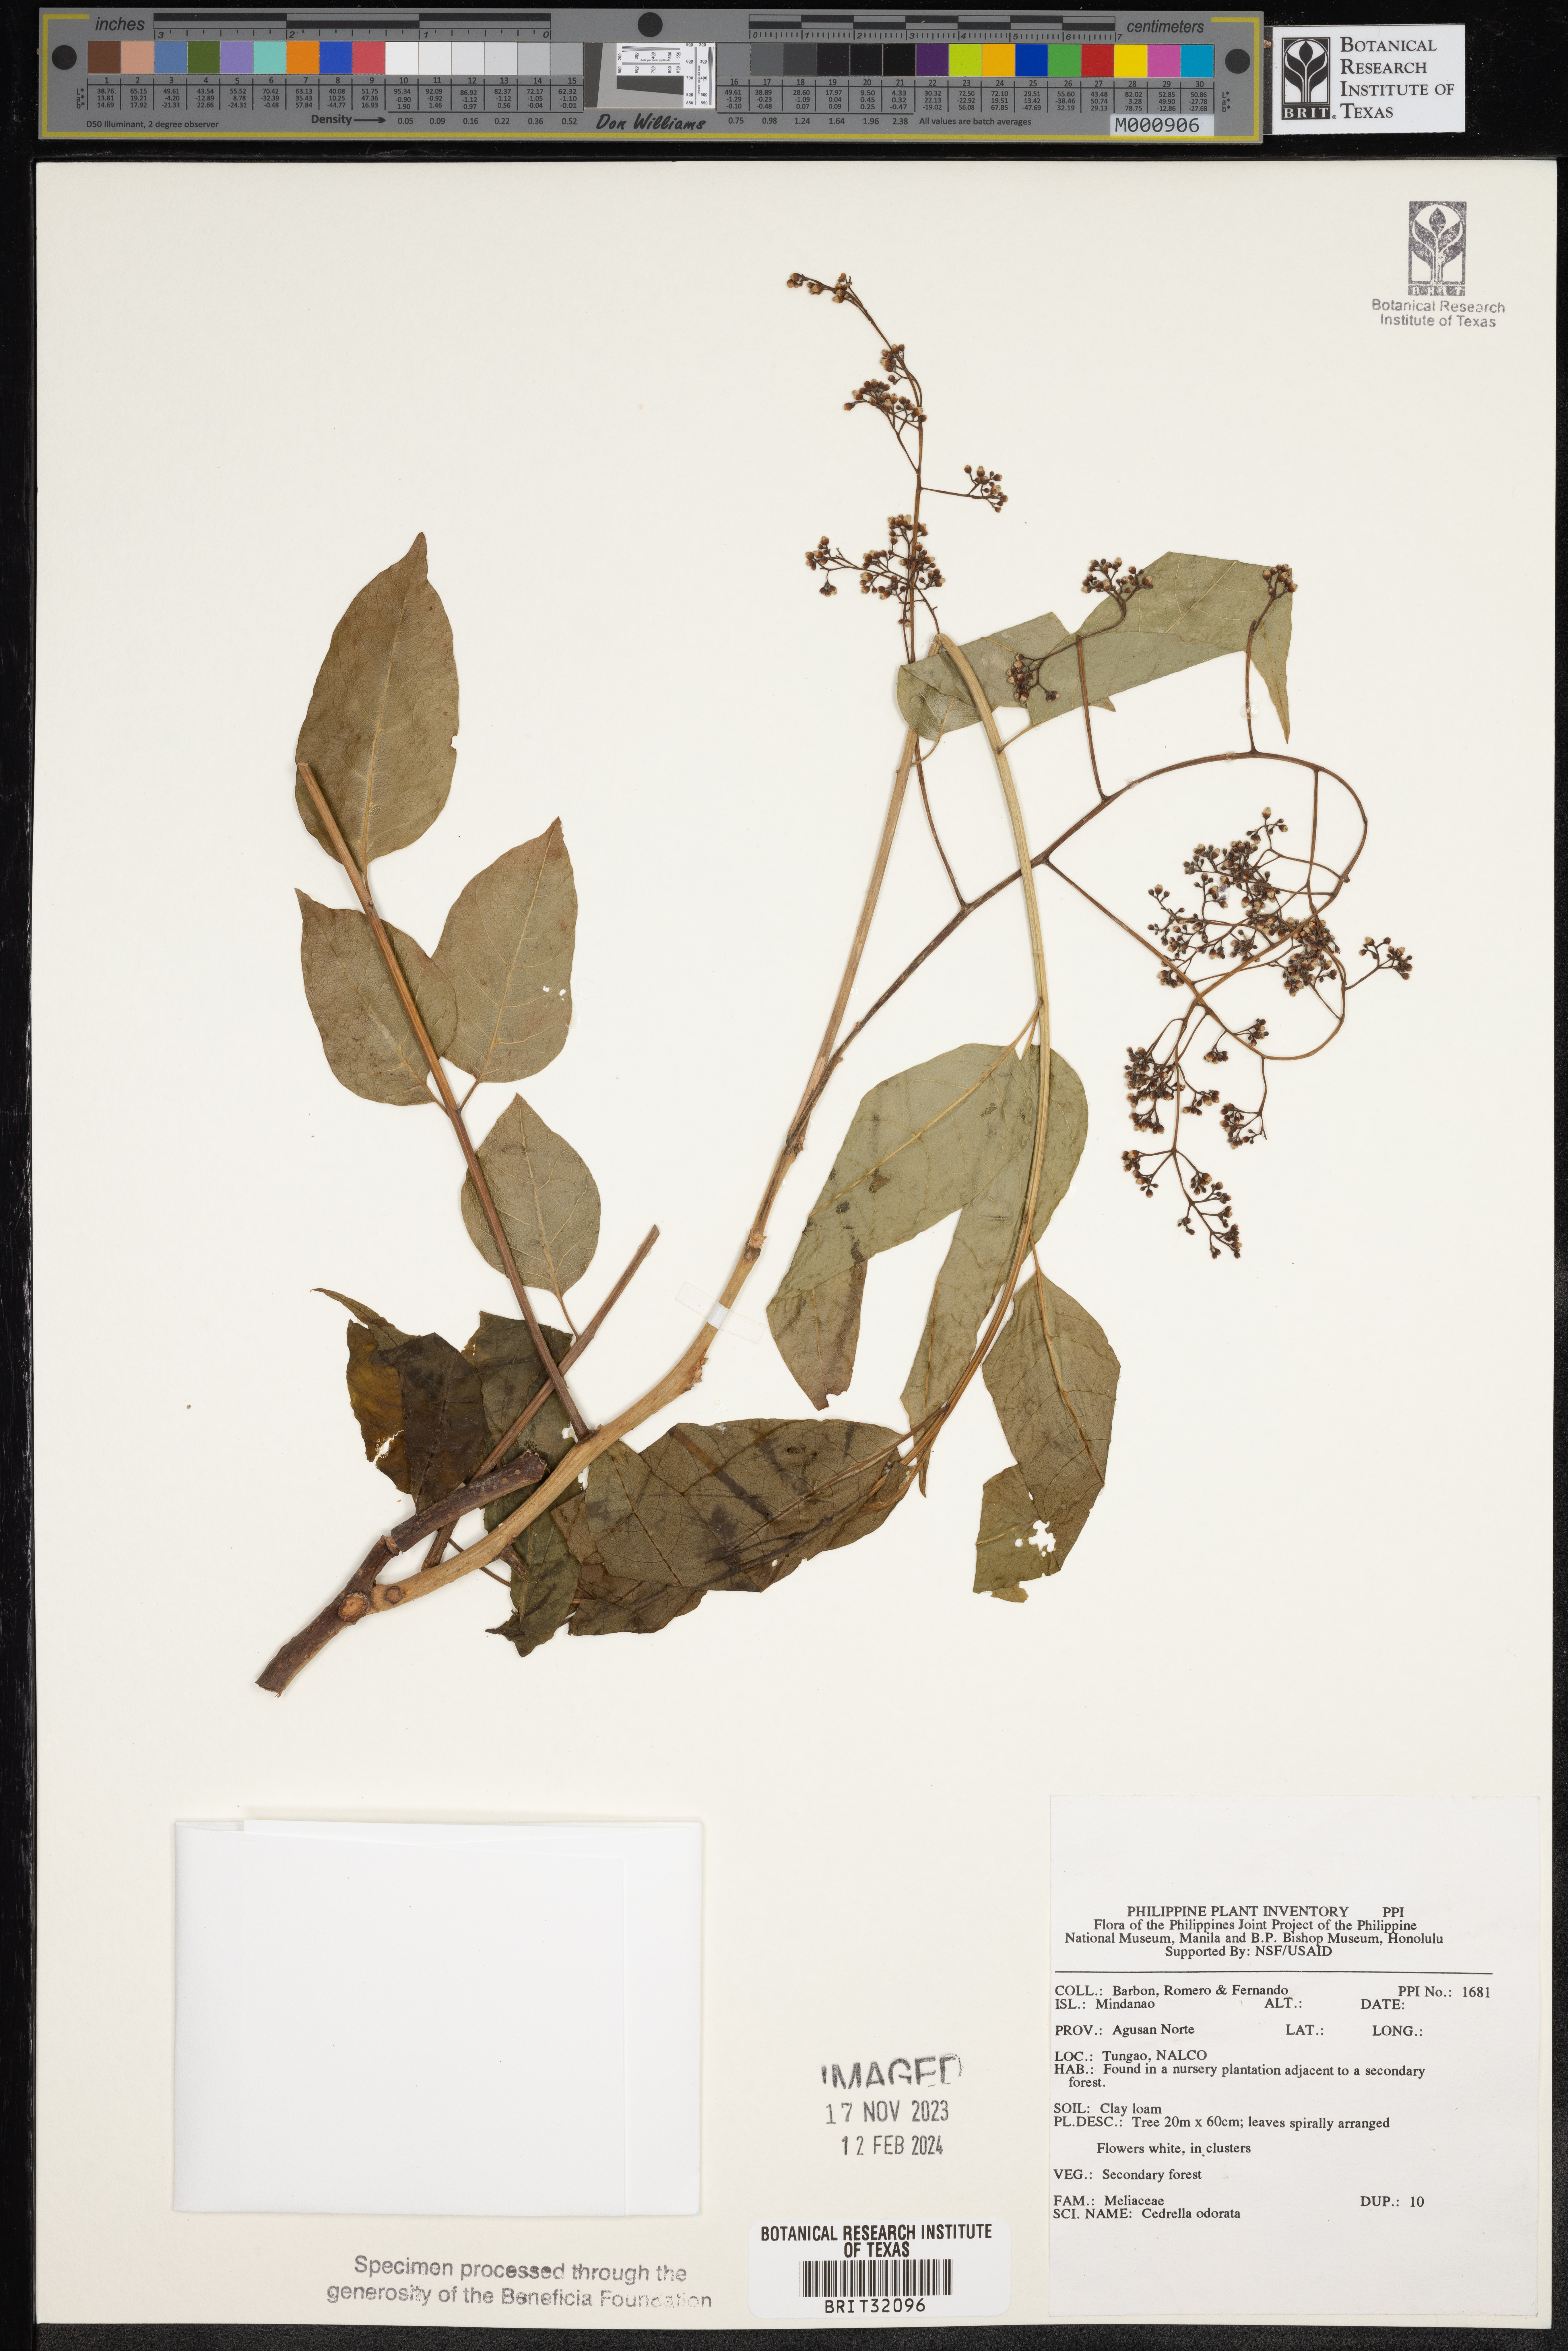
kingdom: Plantae
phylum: Tracheophyta
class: Magnoliopsida
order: Sapindales
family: Meliaceae
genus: Cedrela
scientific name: Cedrela odorata
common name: Red cedar
